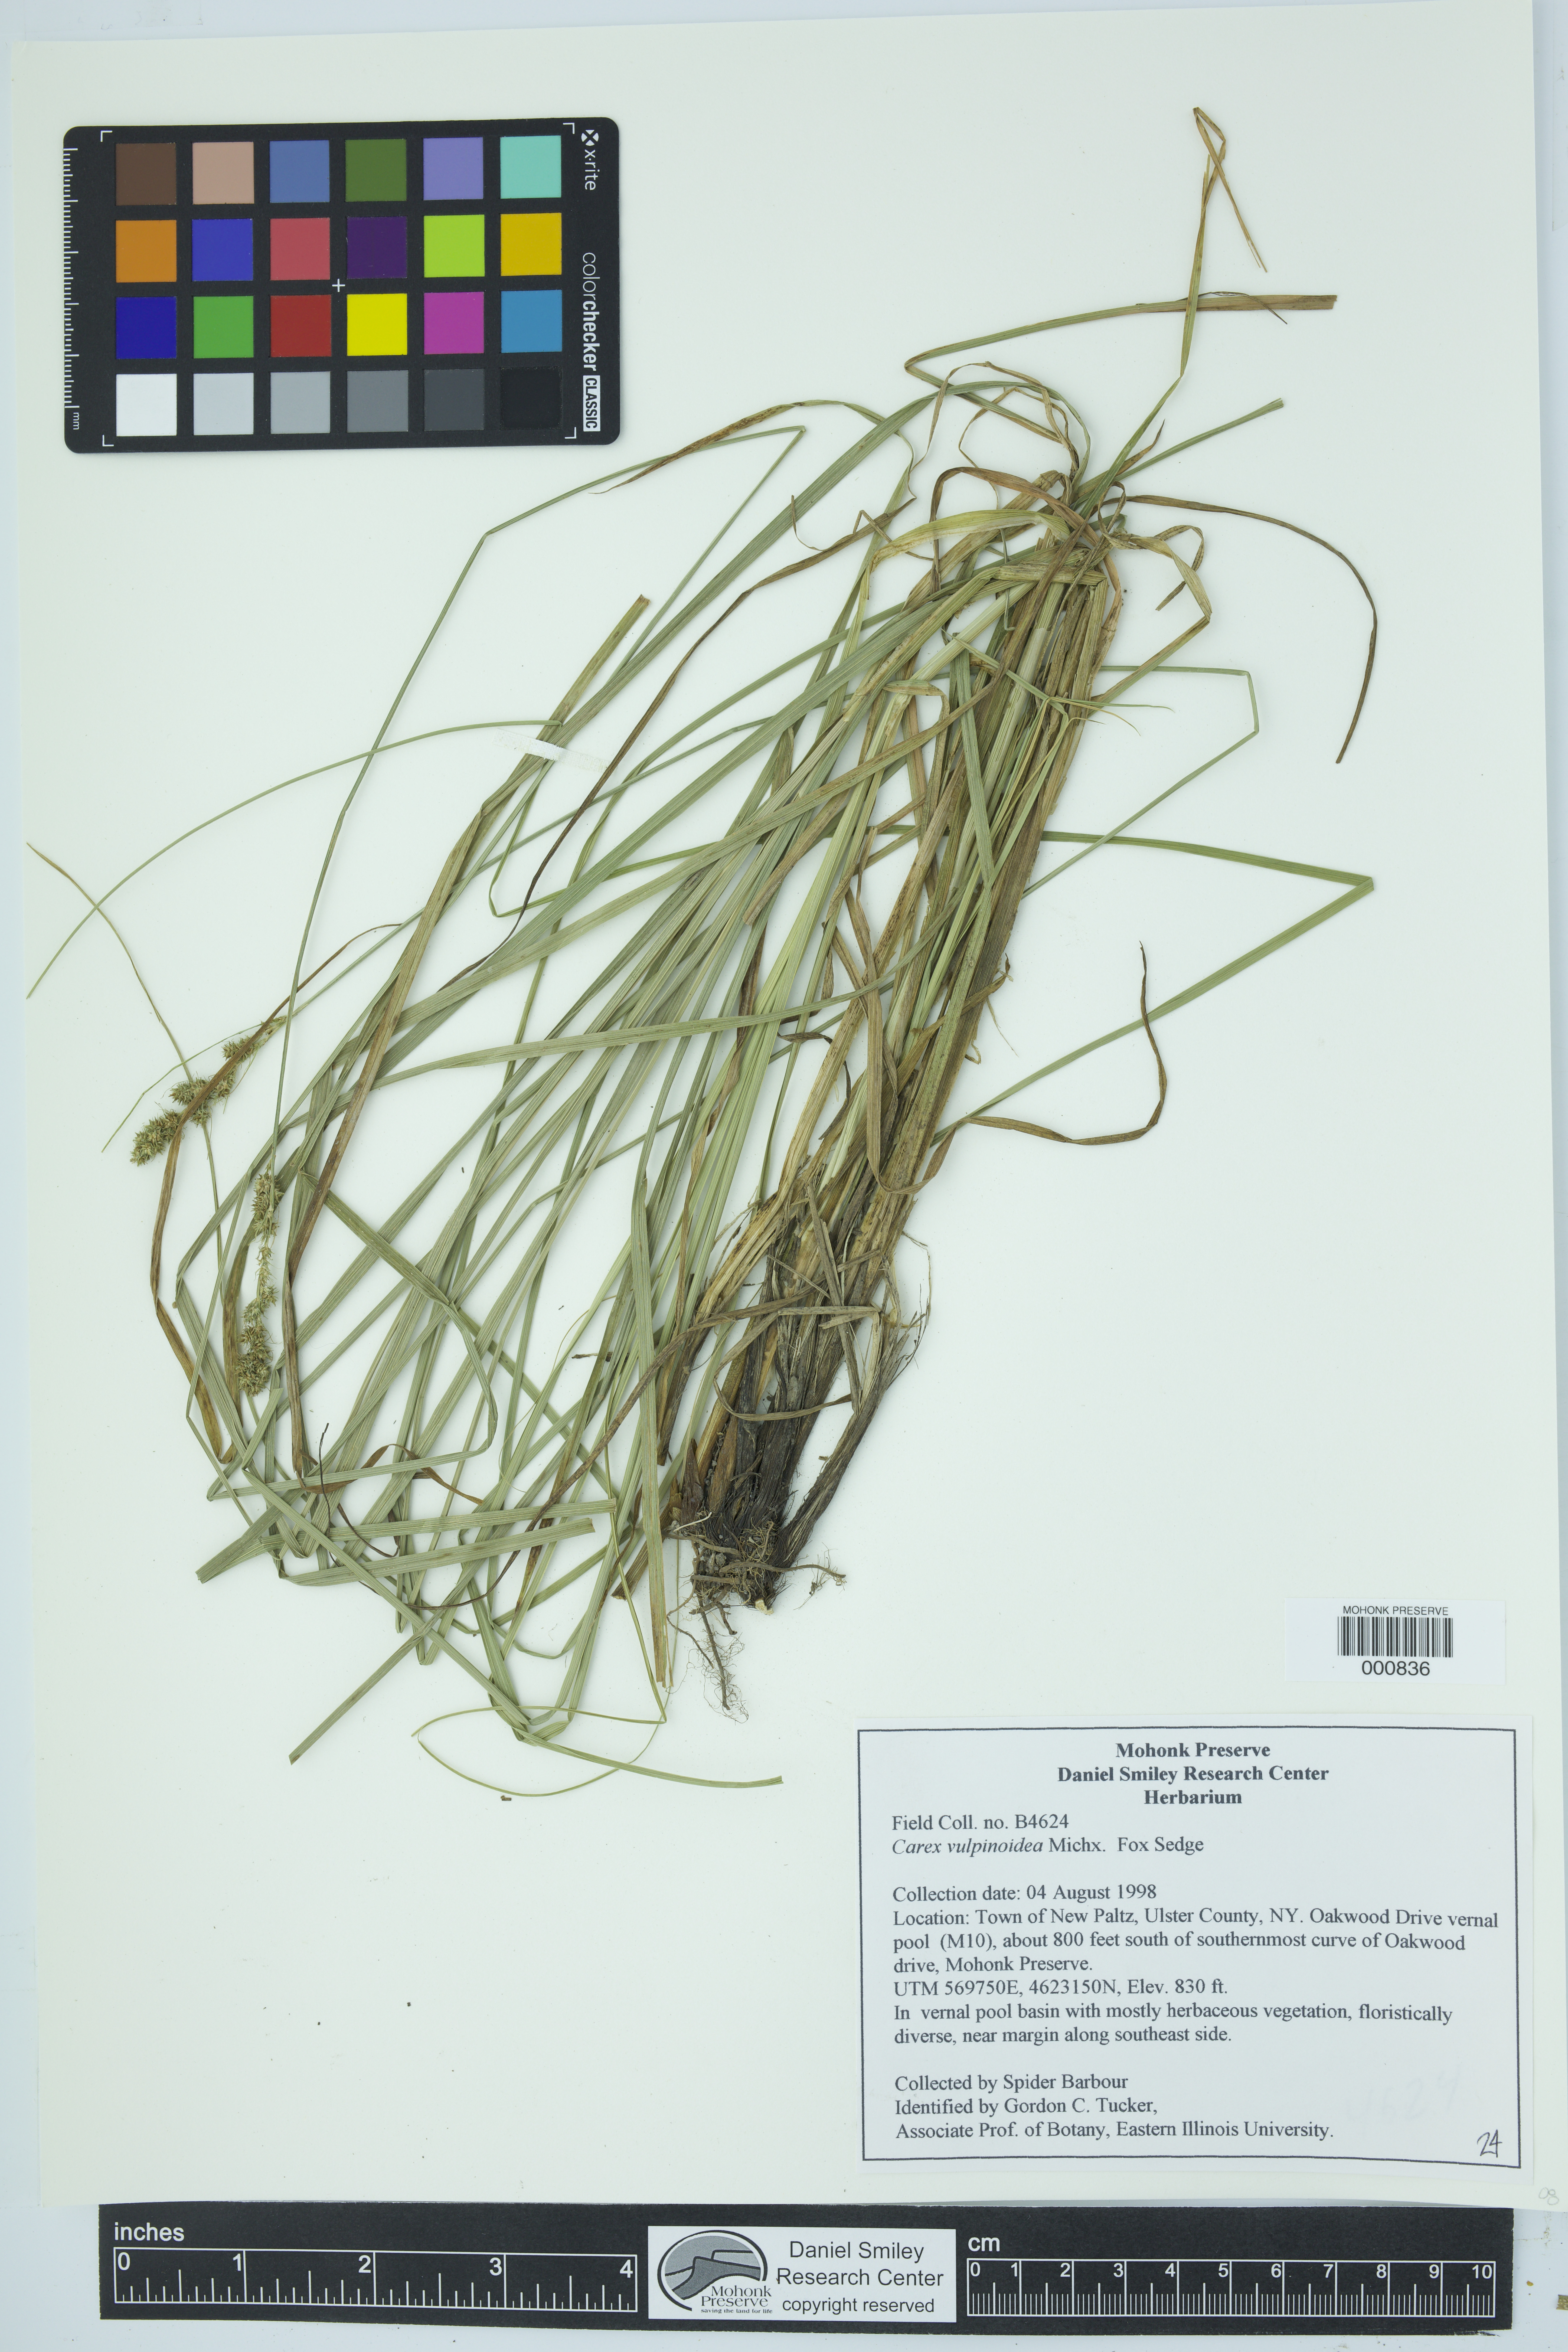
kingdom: Plantae
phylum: Tracheophyta
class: Liliopsida
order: Poales
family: Cyperaceae
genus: Carex
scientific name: Carex vulpinoidea
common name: American fox-sedge
